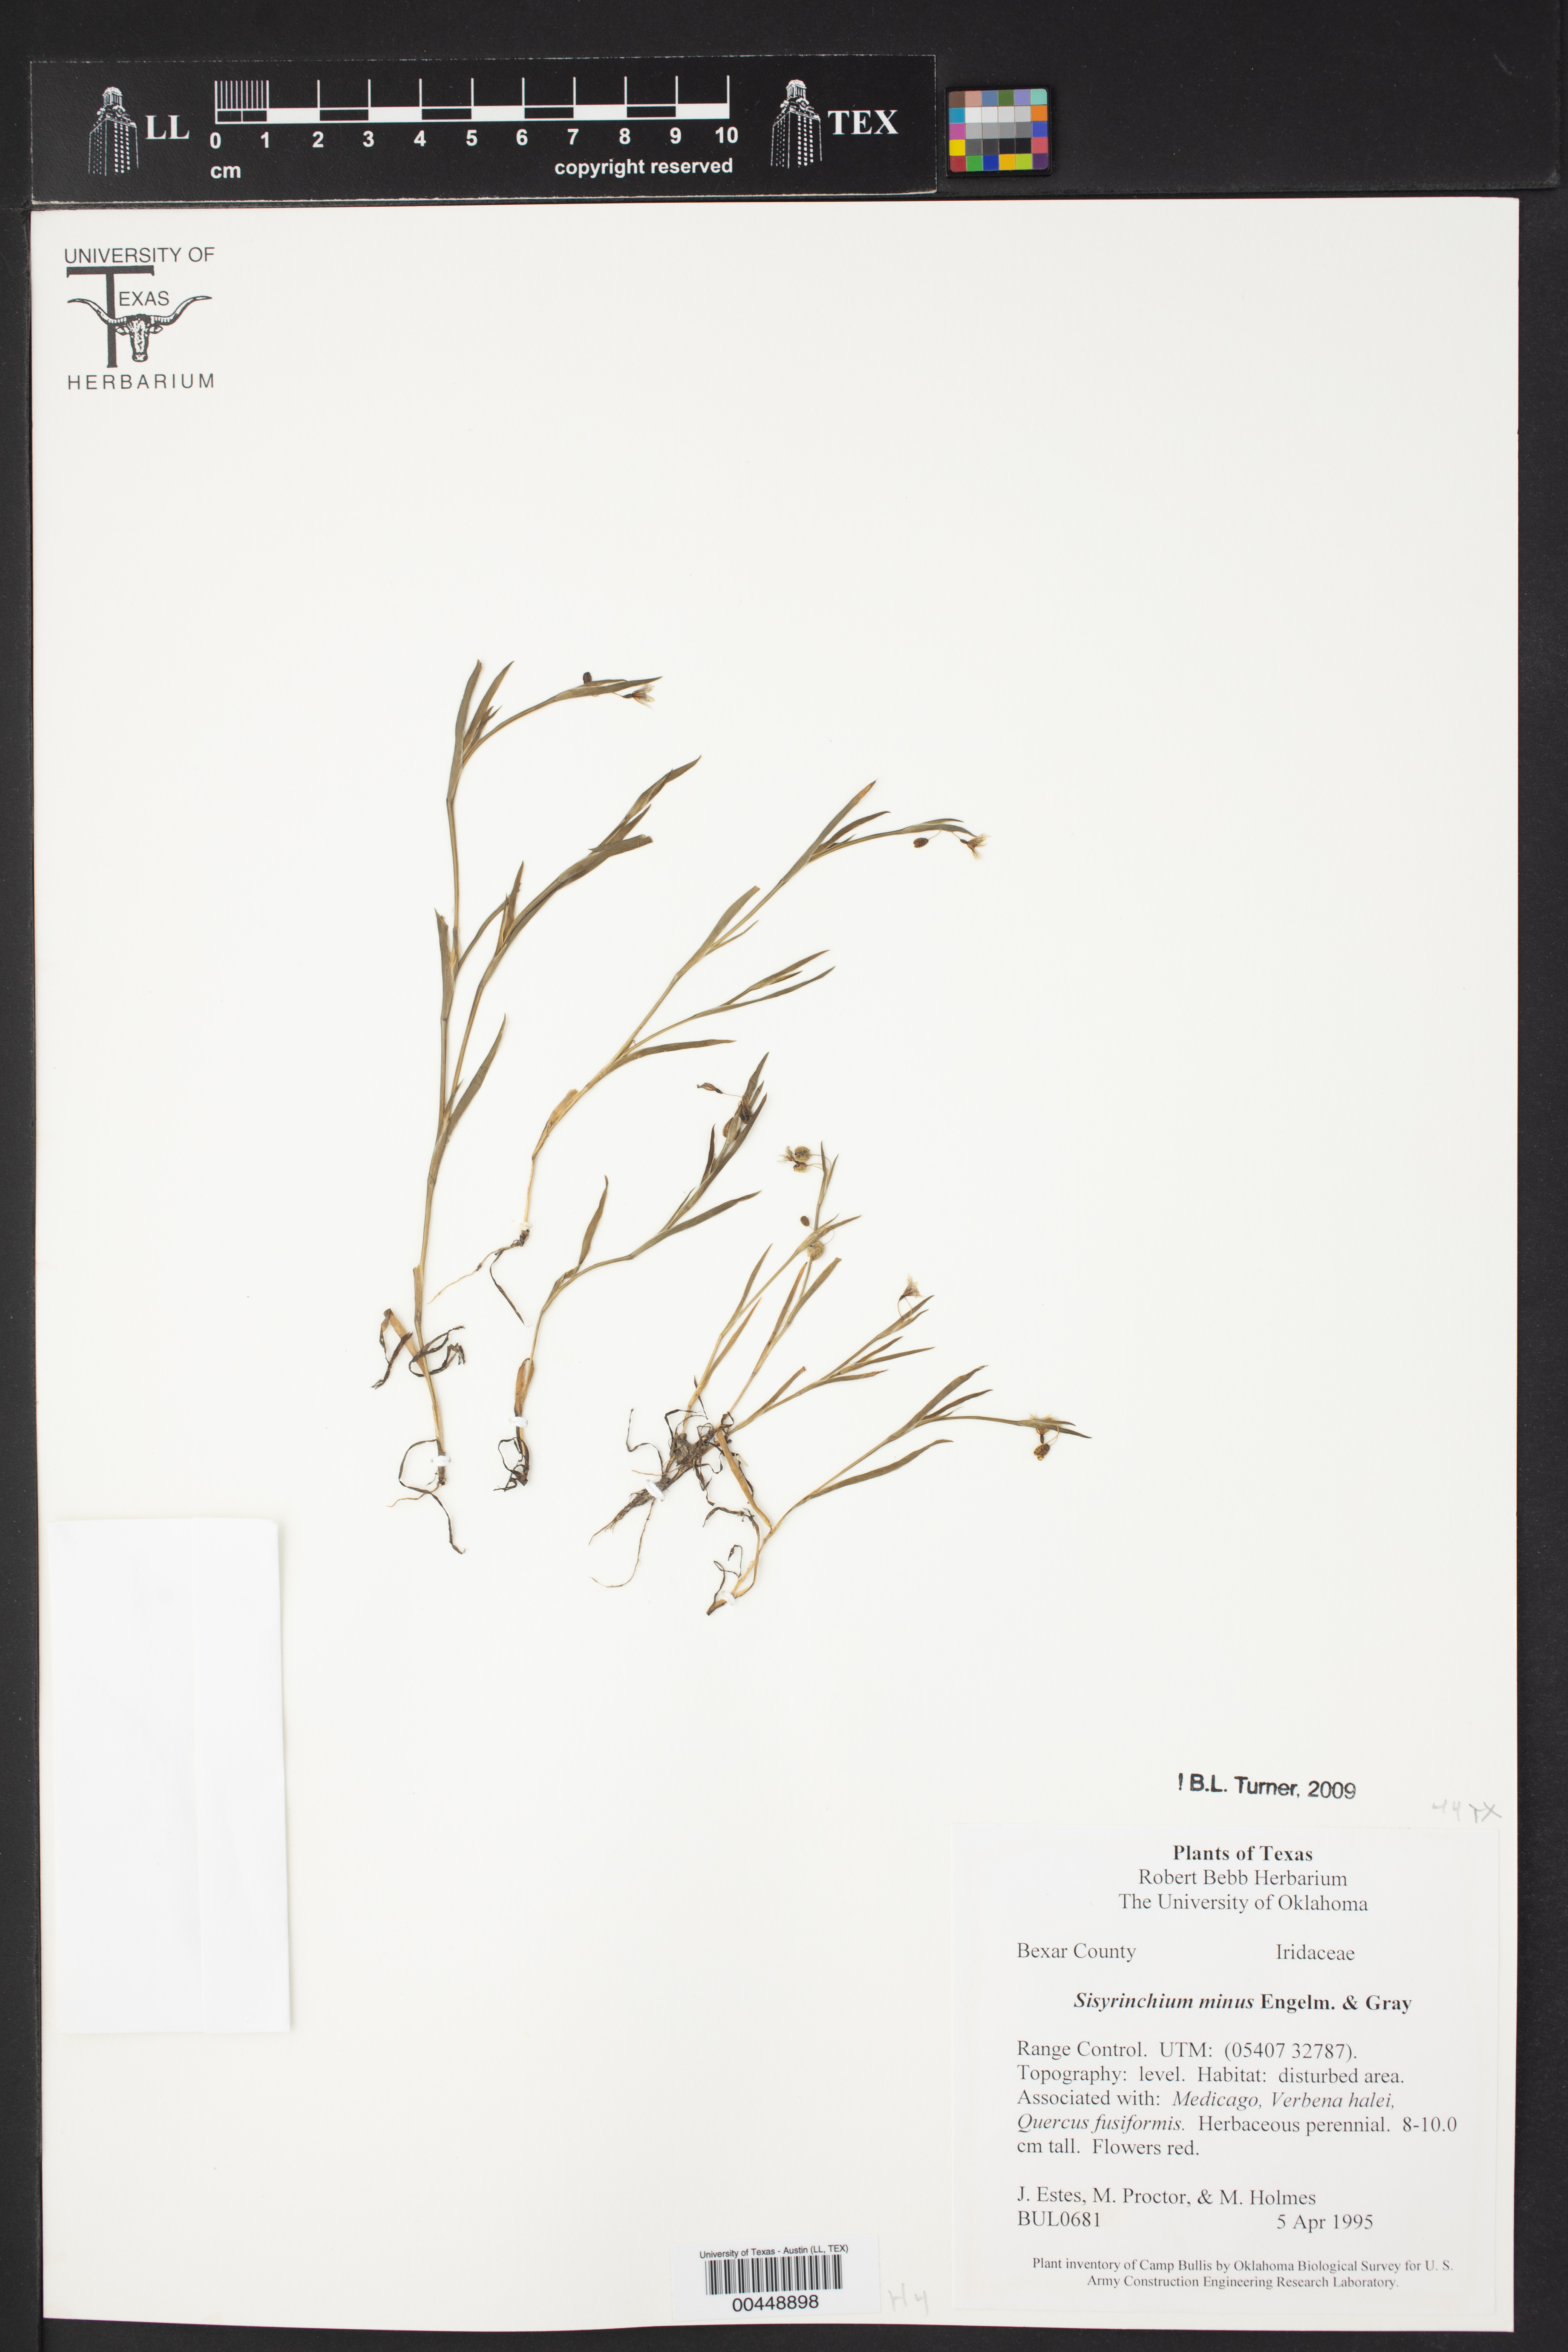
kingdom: Plantae
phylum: Tracheophyta
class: Liliopsida
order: Asparagales
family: Iridaceae
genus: Sisyrinchium
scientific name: Sisyrinchium minus
